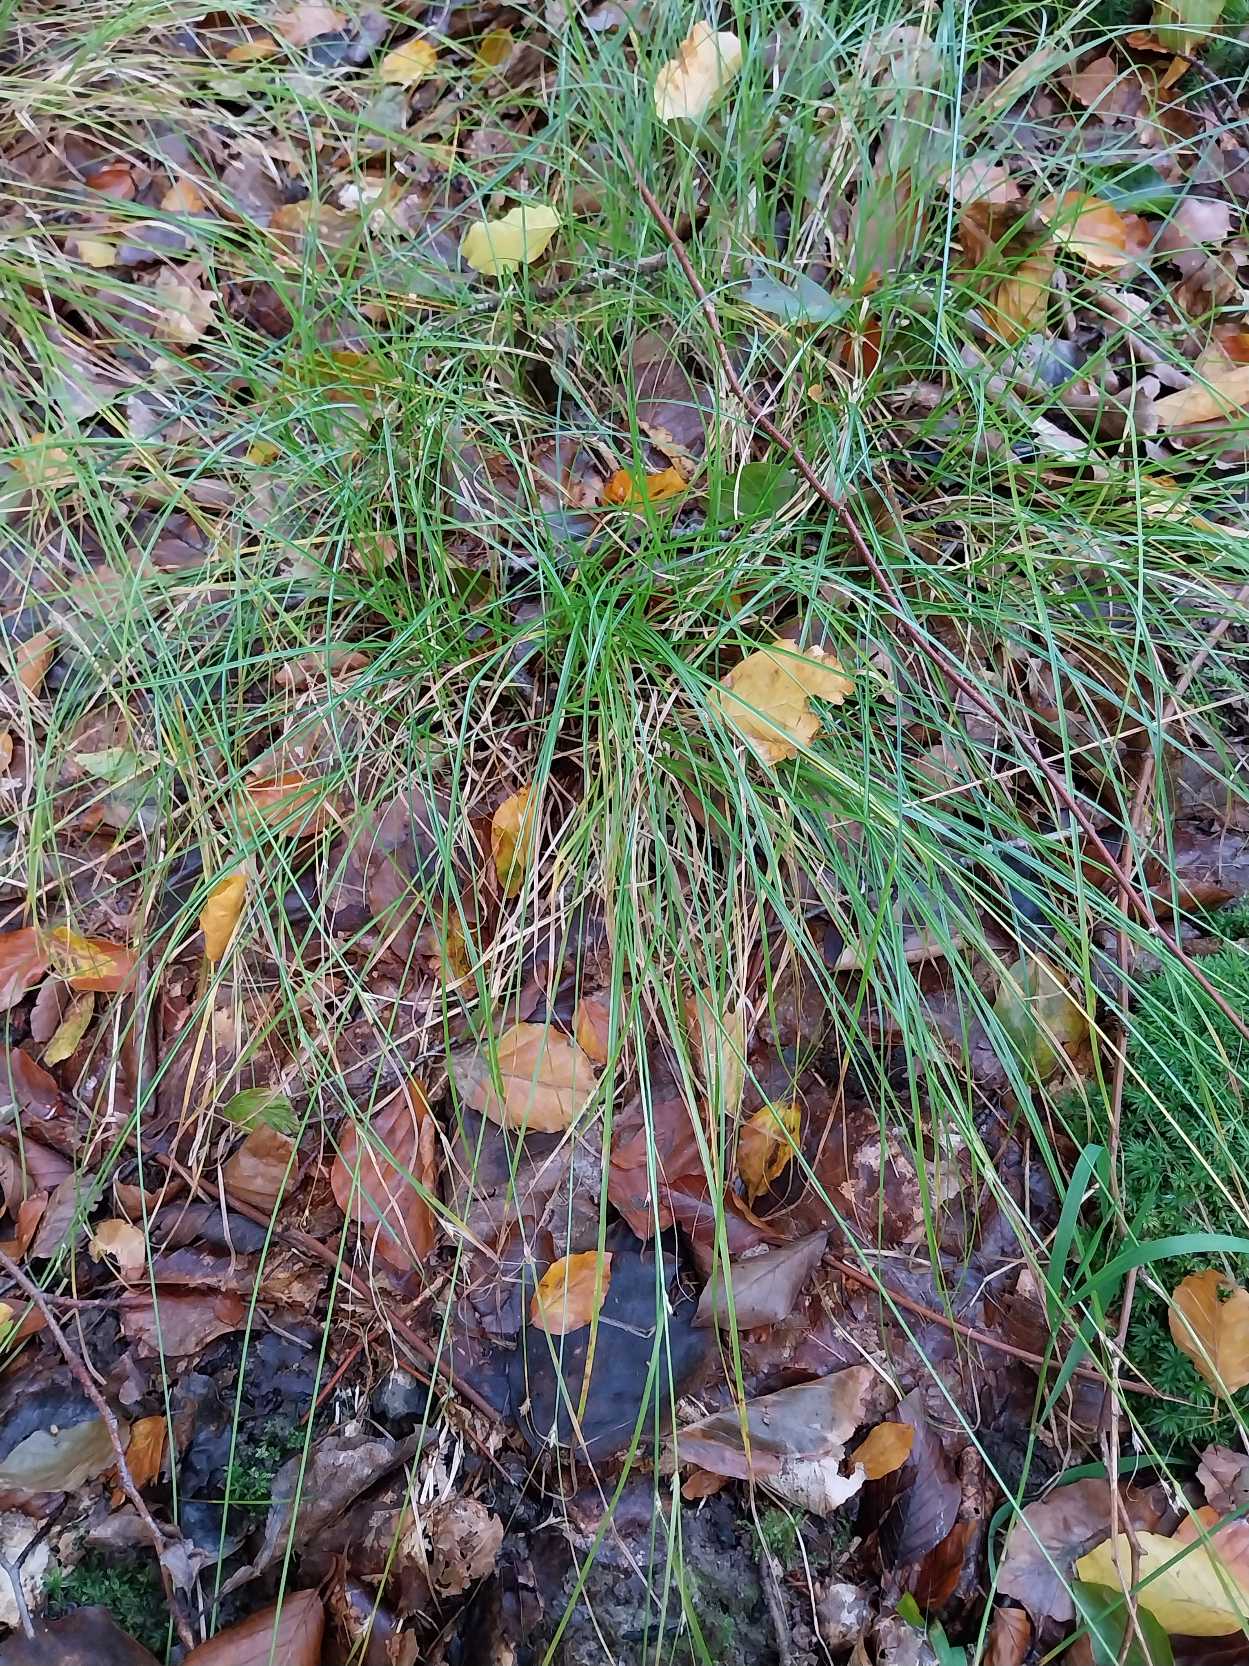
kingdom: Plantae
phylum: Tracheophyta
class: Liliopsida
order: Poales
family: Cyperaceae
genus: Carex
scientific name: Carex remota
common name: Akselblomstret star
